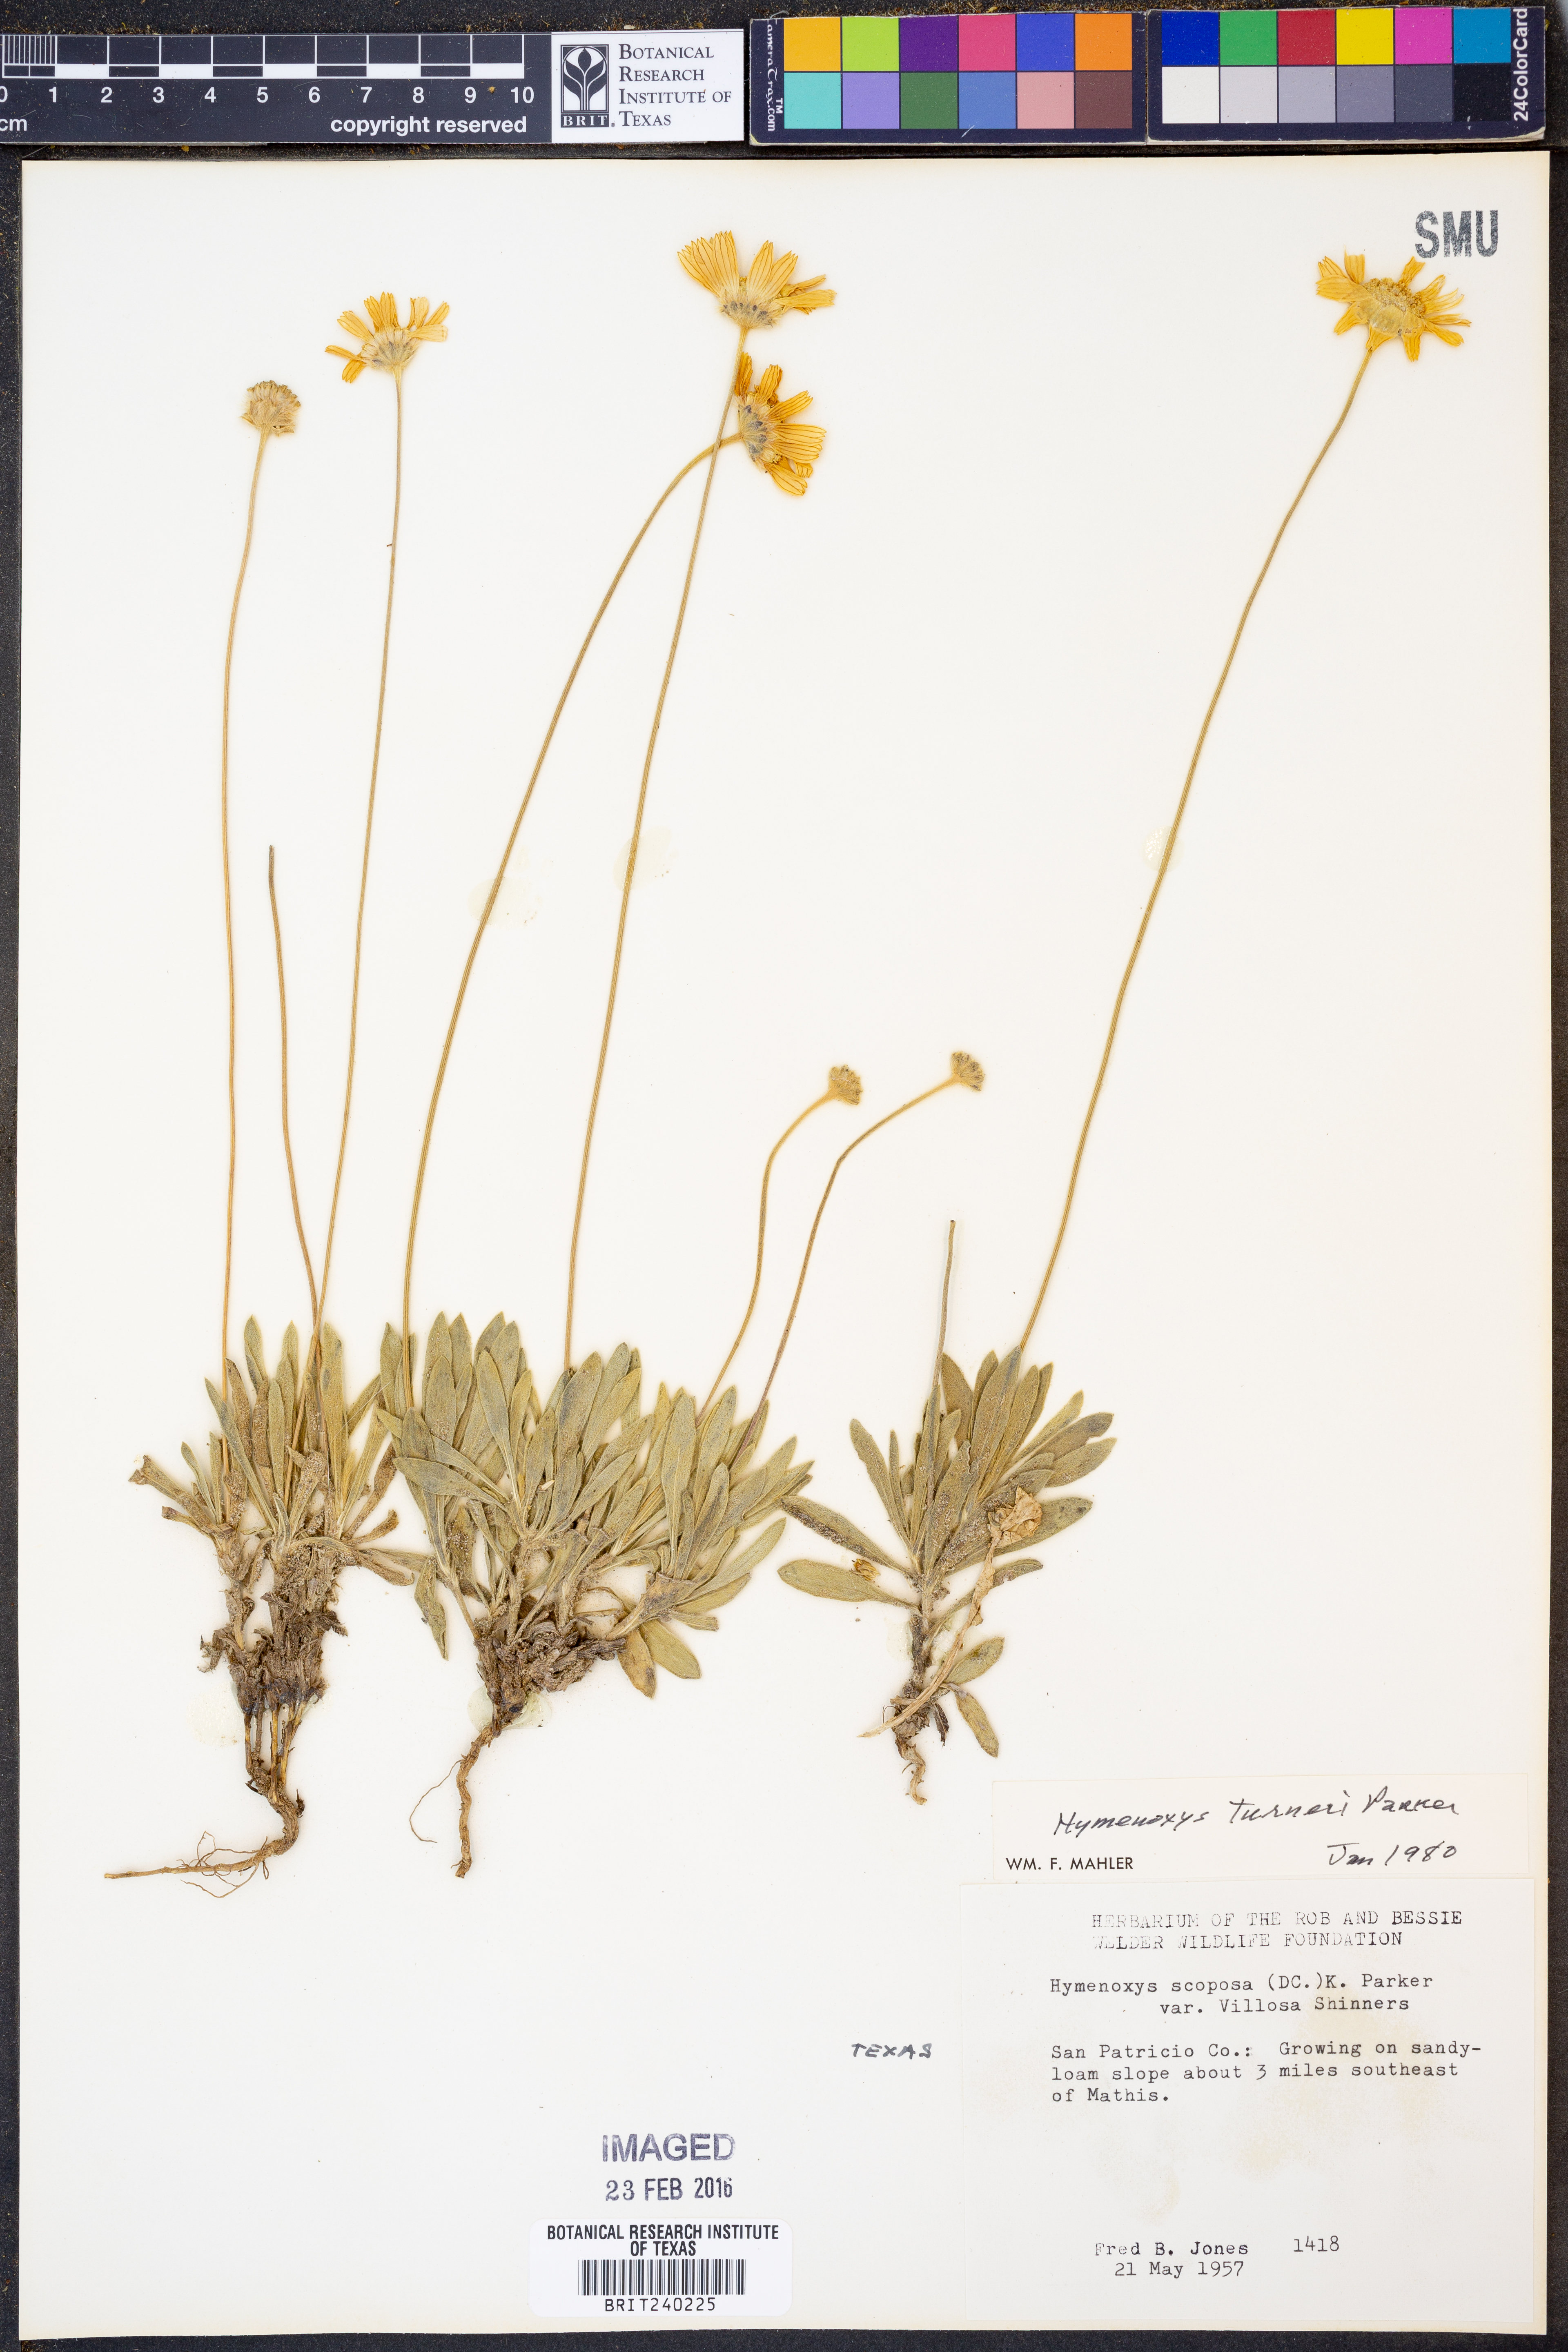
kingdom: Plantae
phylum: Tracheophyta
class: Magnoliopsida
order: Asterales
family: Asteraceae
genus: Tetraneuris
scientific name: Tetraneuris turneri
